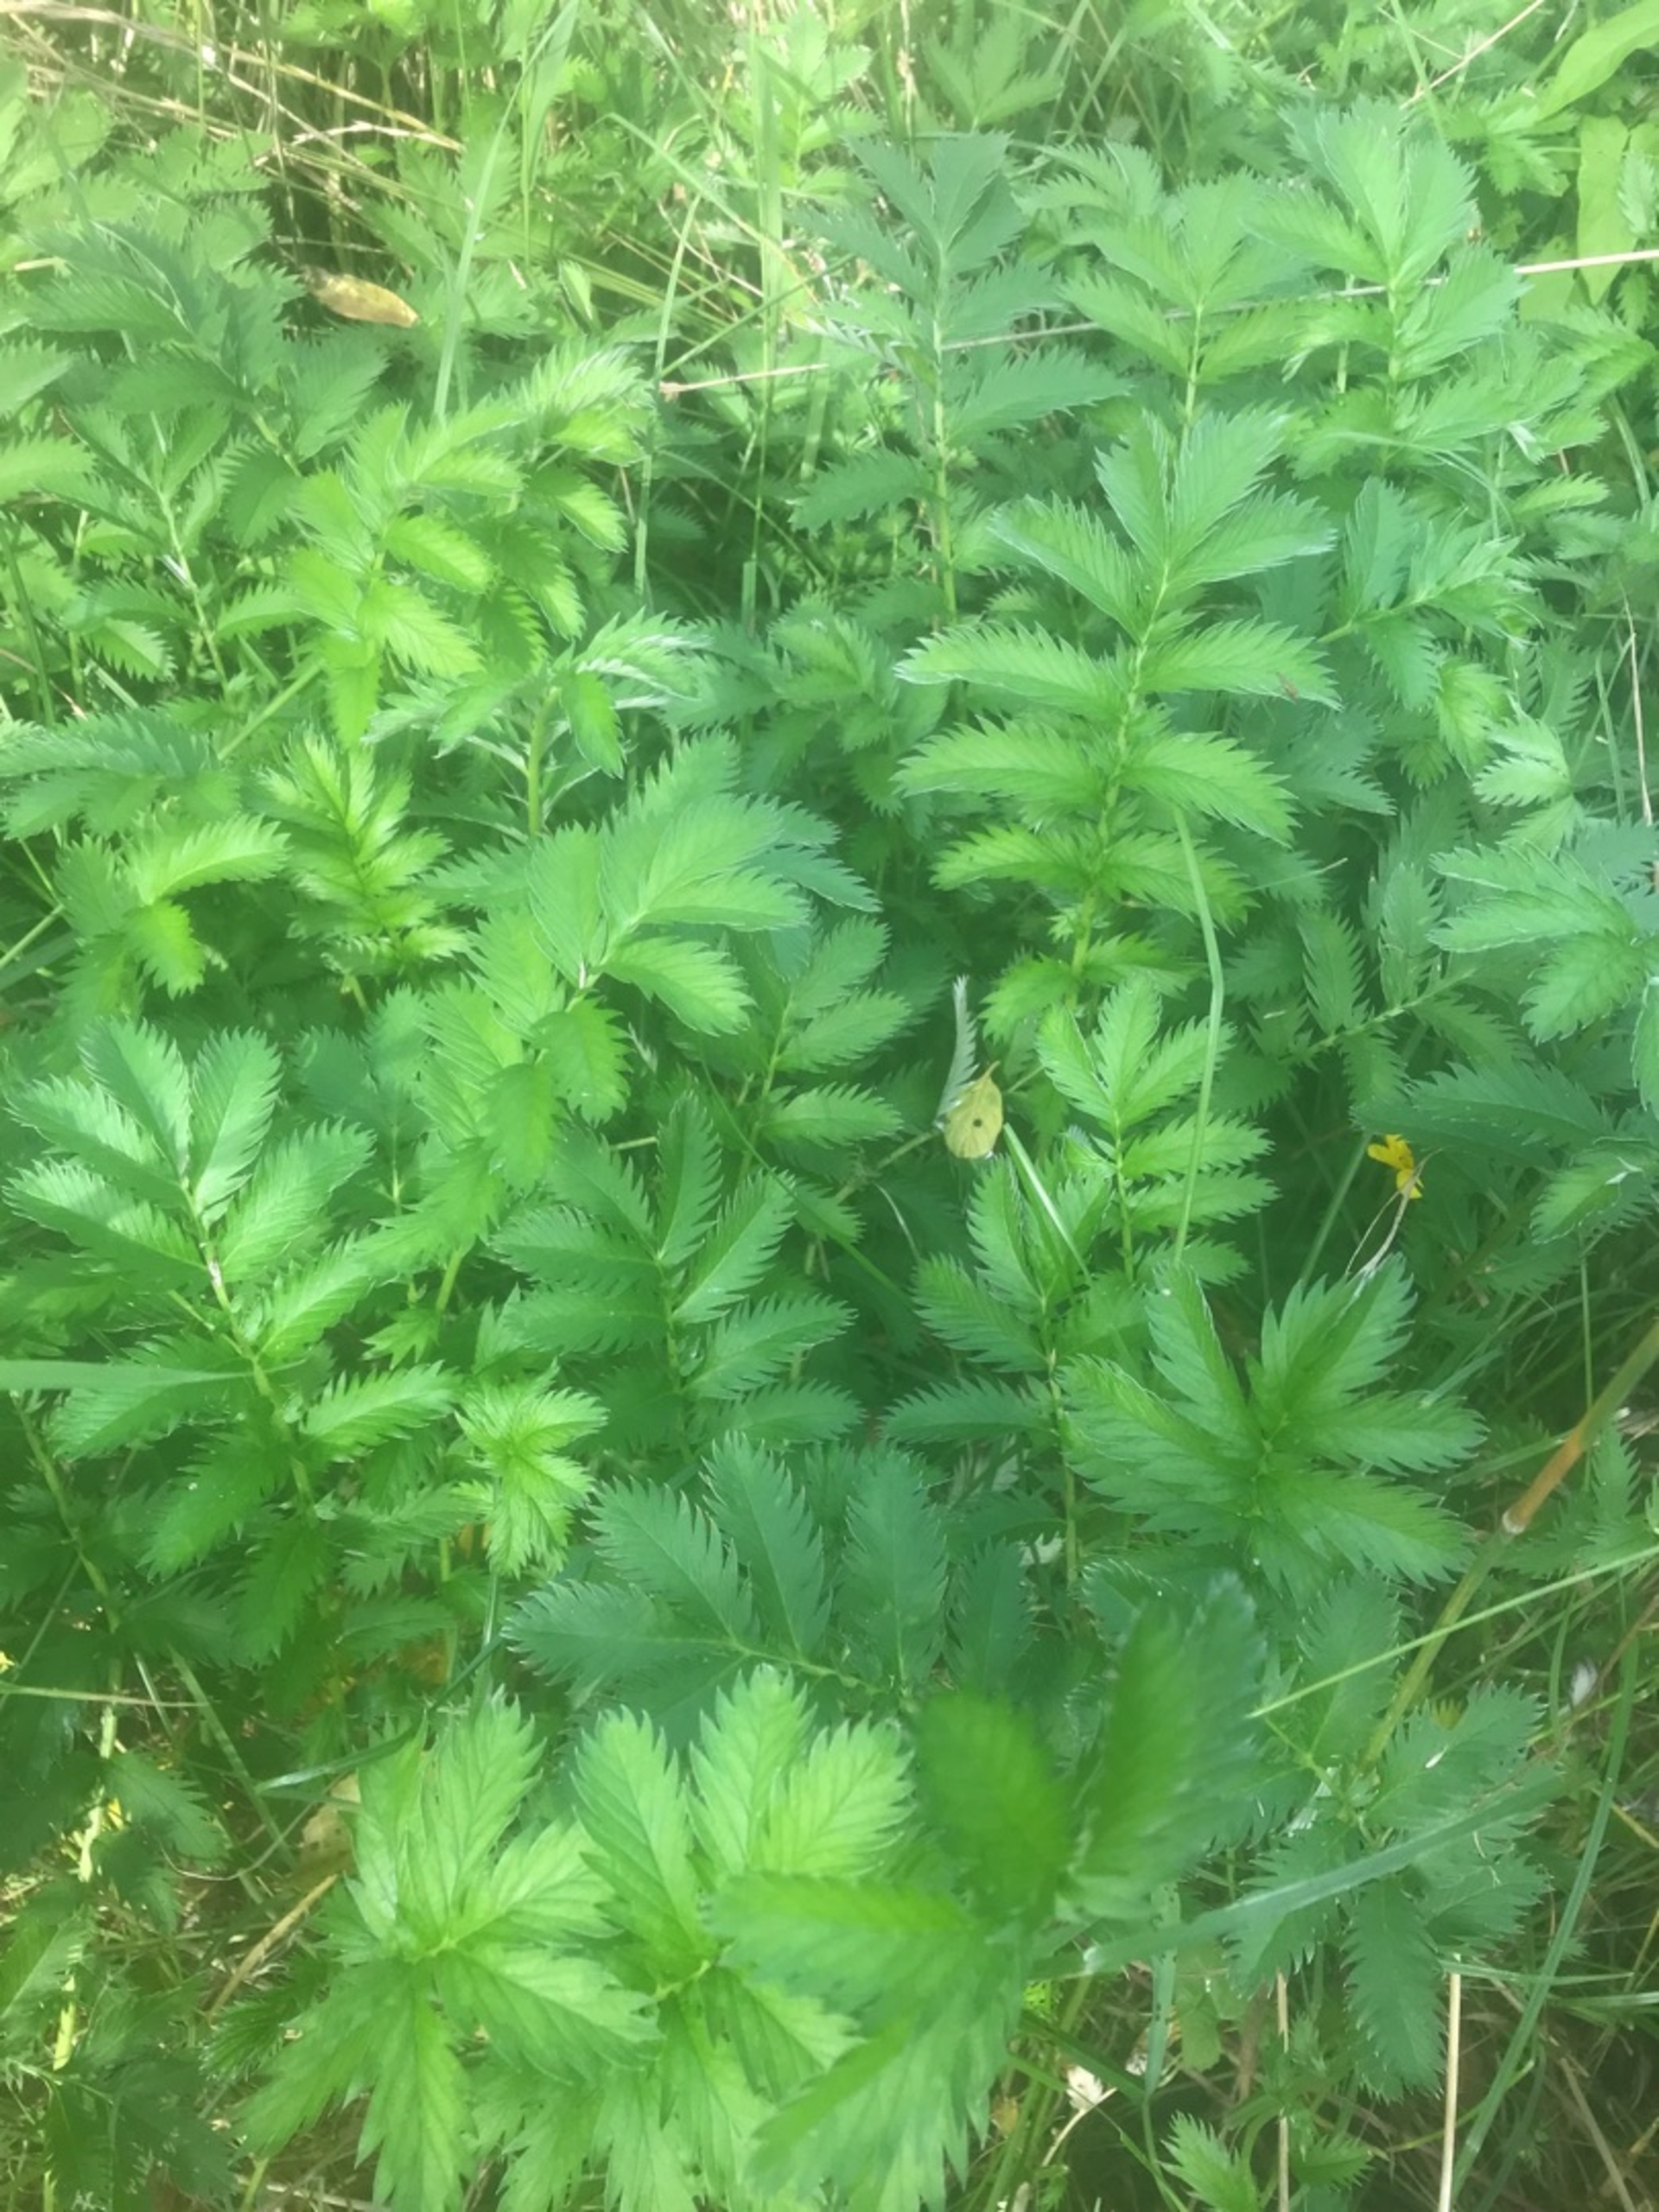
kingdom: Plantae
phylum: Tracheophyta
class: Magnoliopsida
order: Rosales
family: Rosaceae
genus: Argentina
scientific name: Argentina anserina
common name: Gåsepotentil
